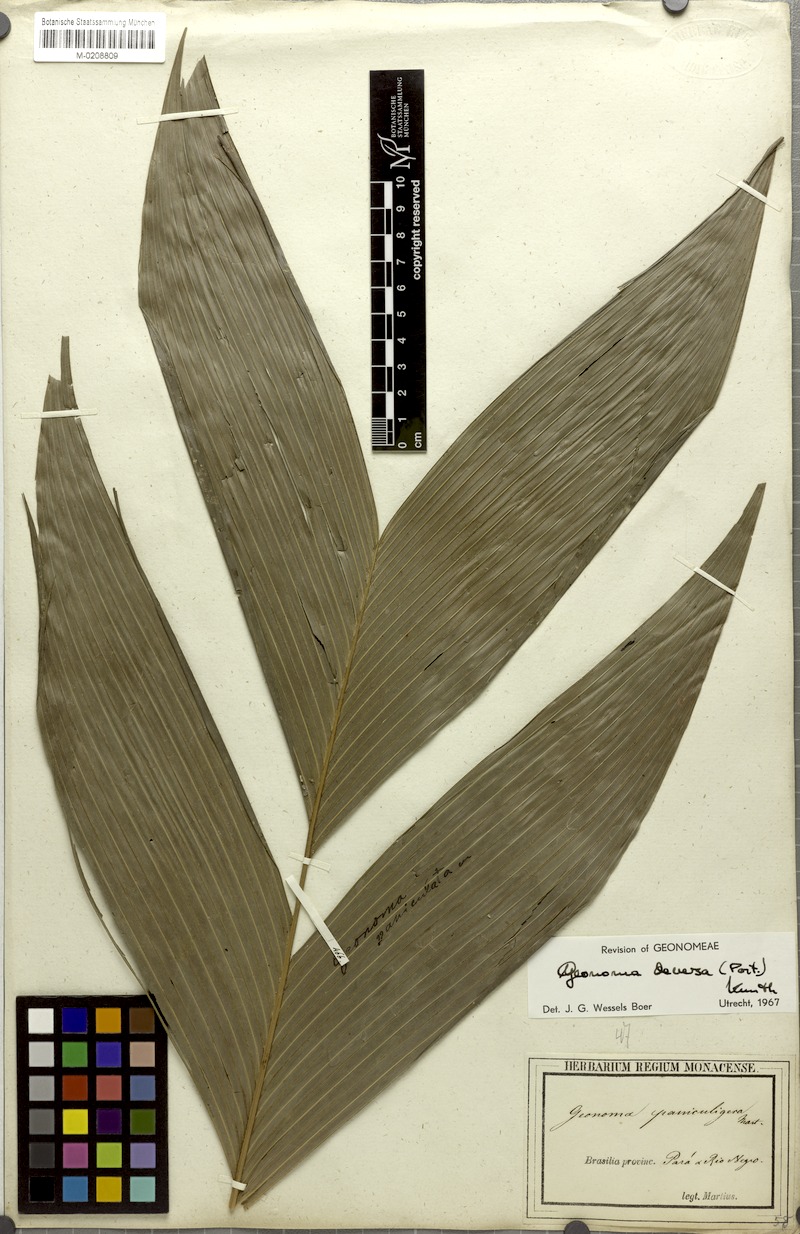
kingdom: Plantae
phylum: Tracheophyta
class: Liliopsida
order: Arecales
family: Arecaceae
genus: Geonoma
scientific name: Geonoma deversa
